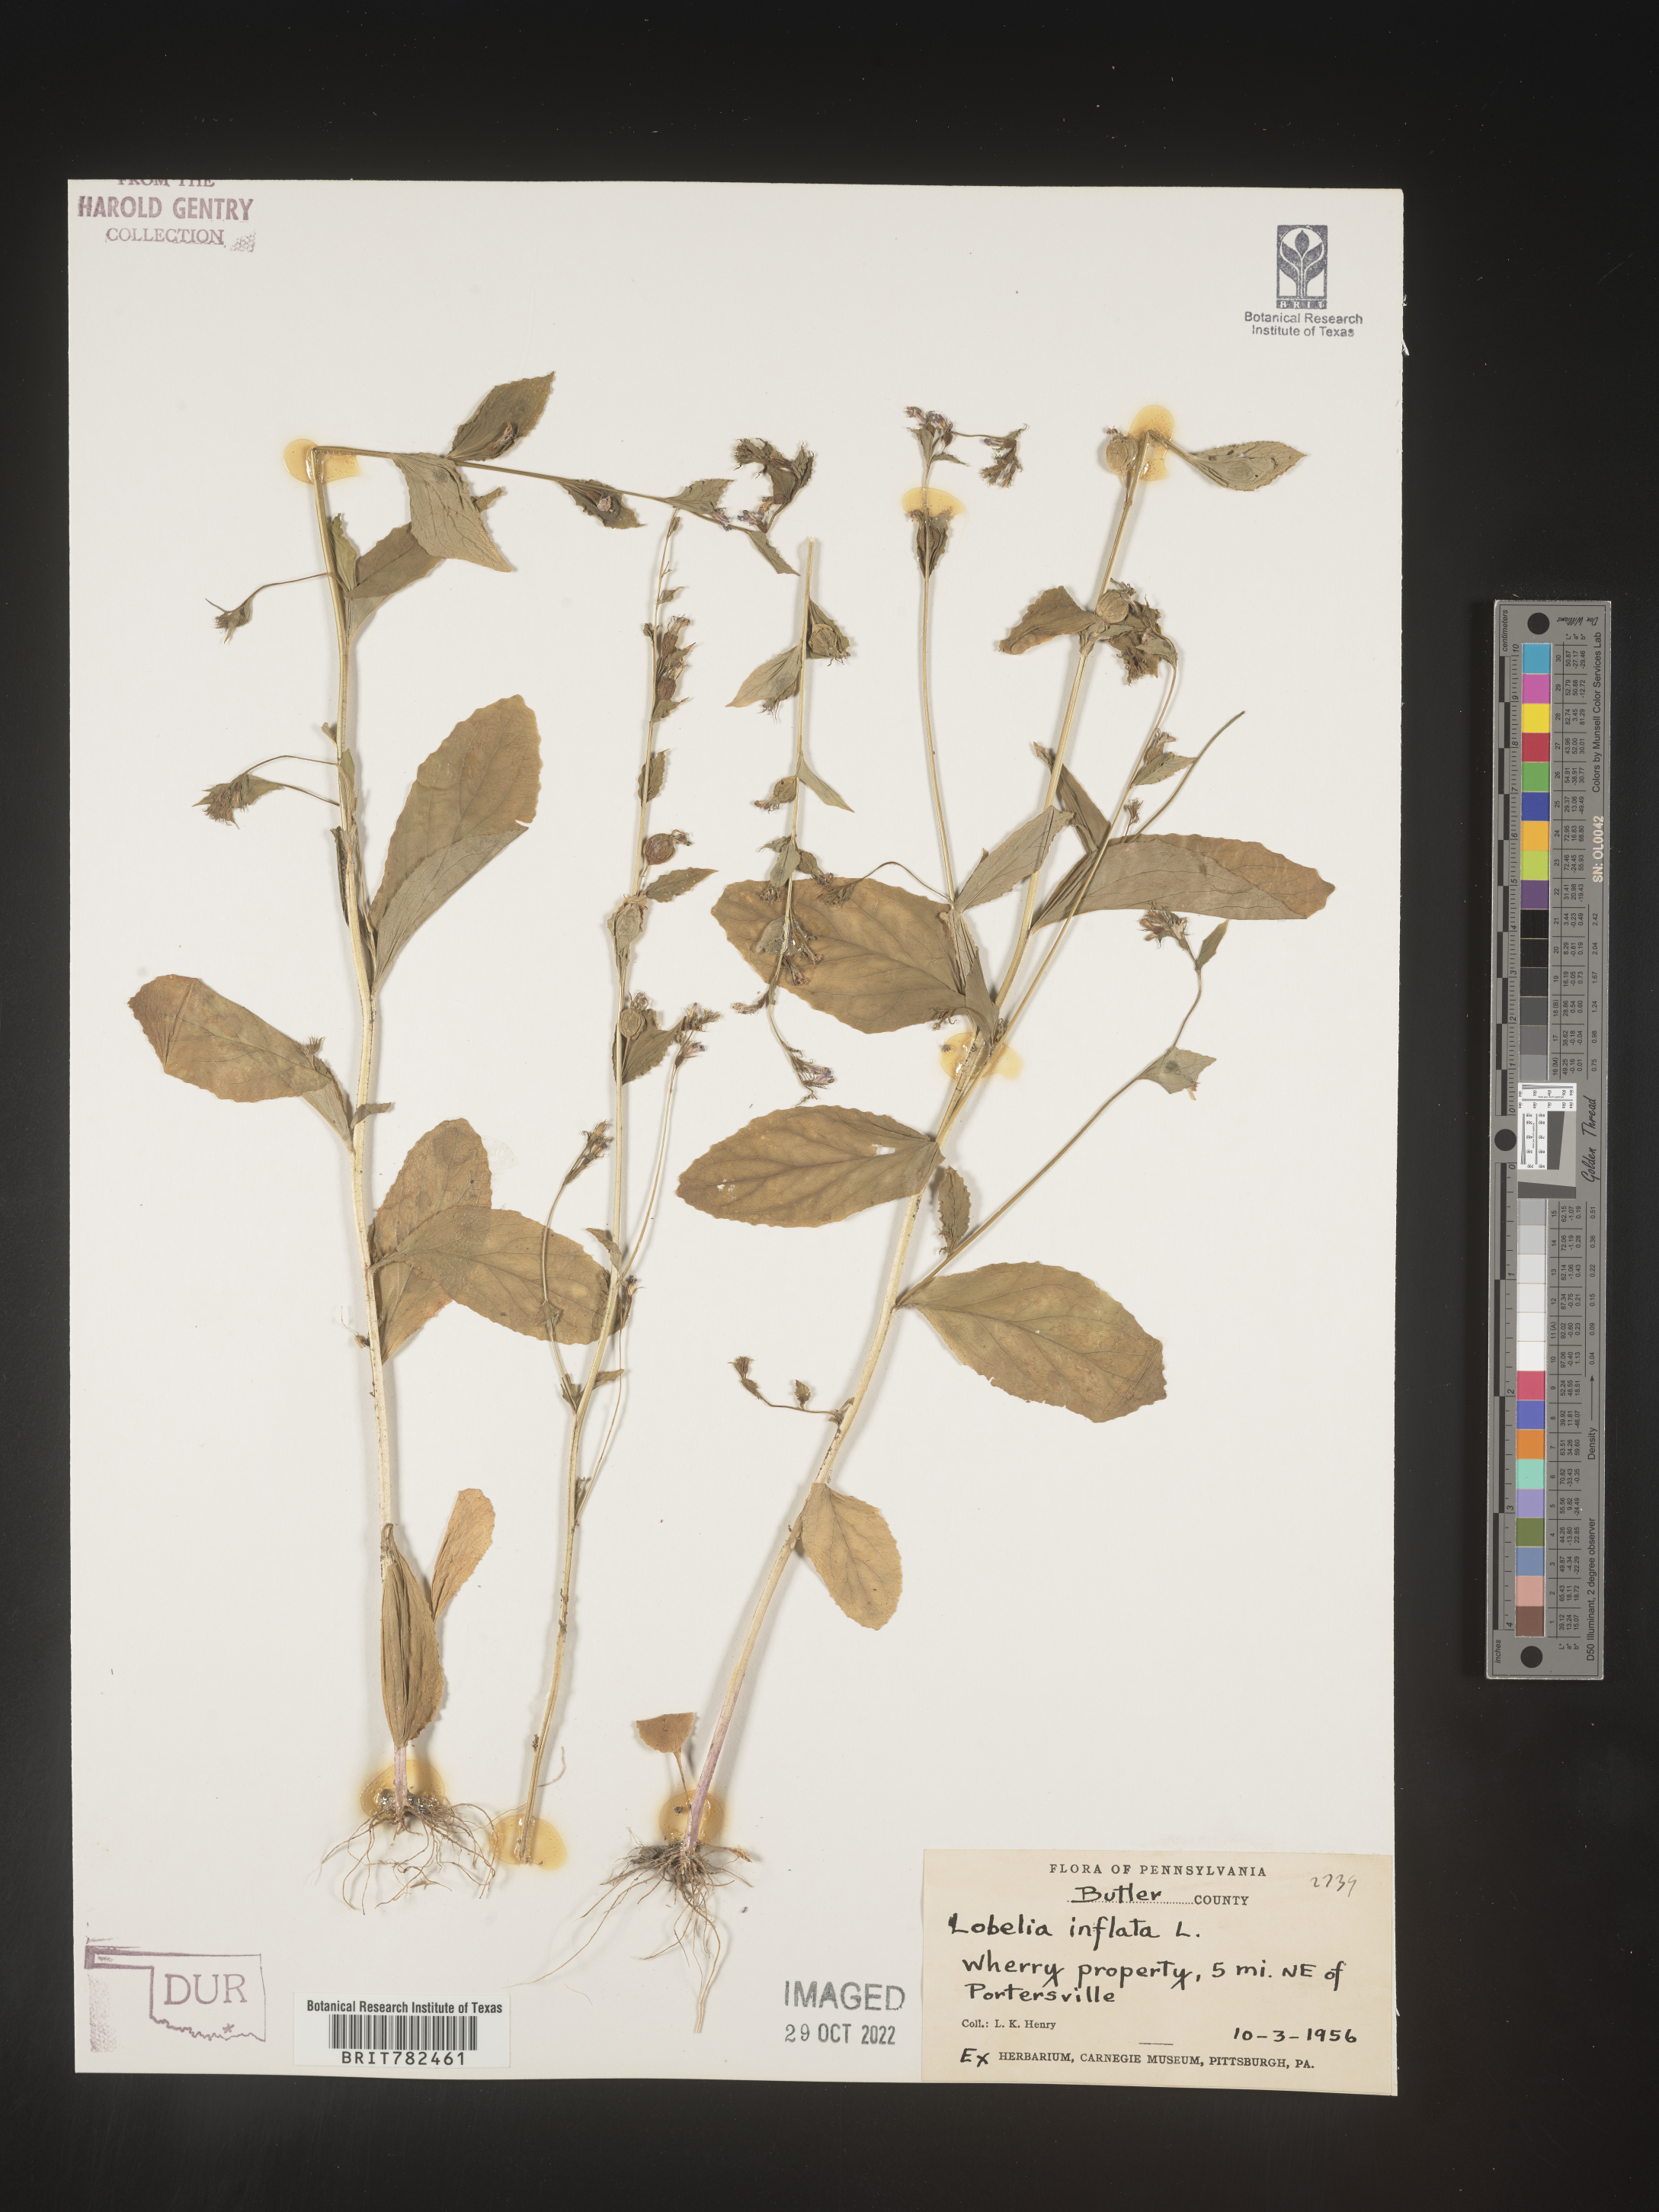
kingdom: Plantae
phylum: Tracheophyta
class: Magnoliopsida
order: Asterales
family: Campanulaceae
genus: Lobelia
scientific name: Lobelia inflata
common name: Indian tobacco
